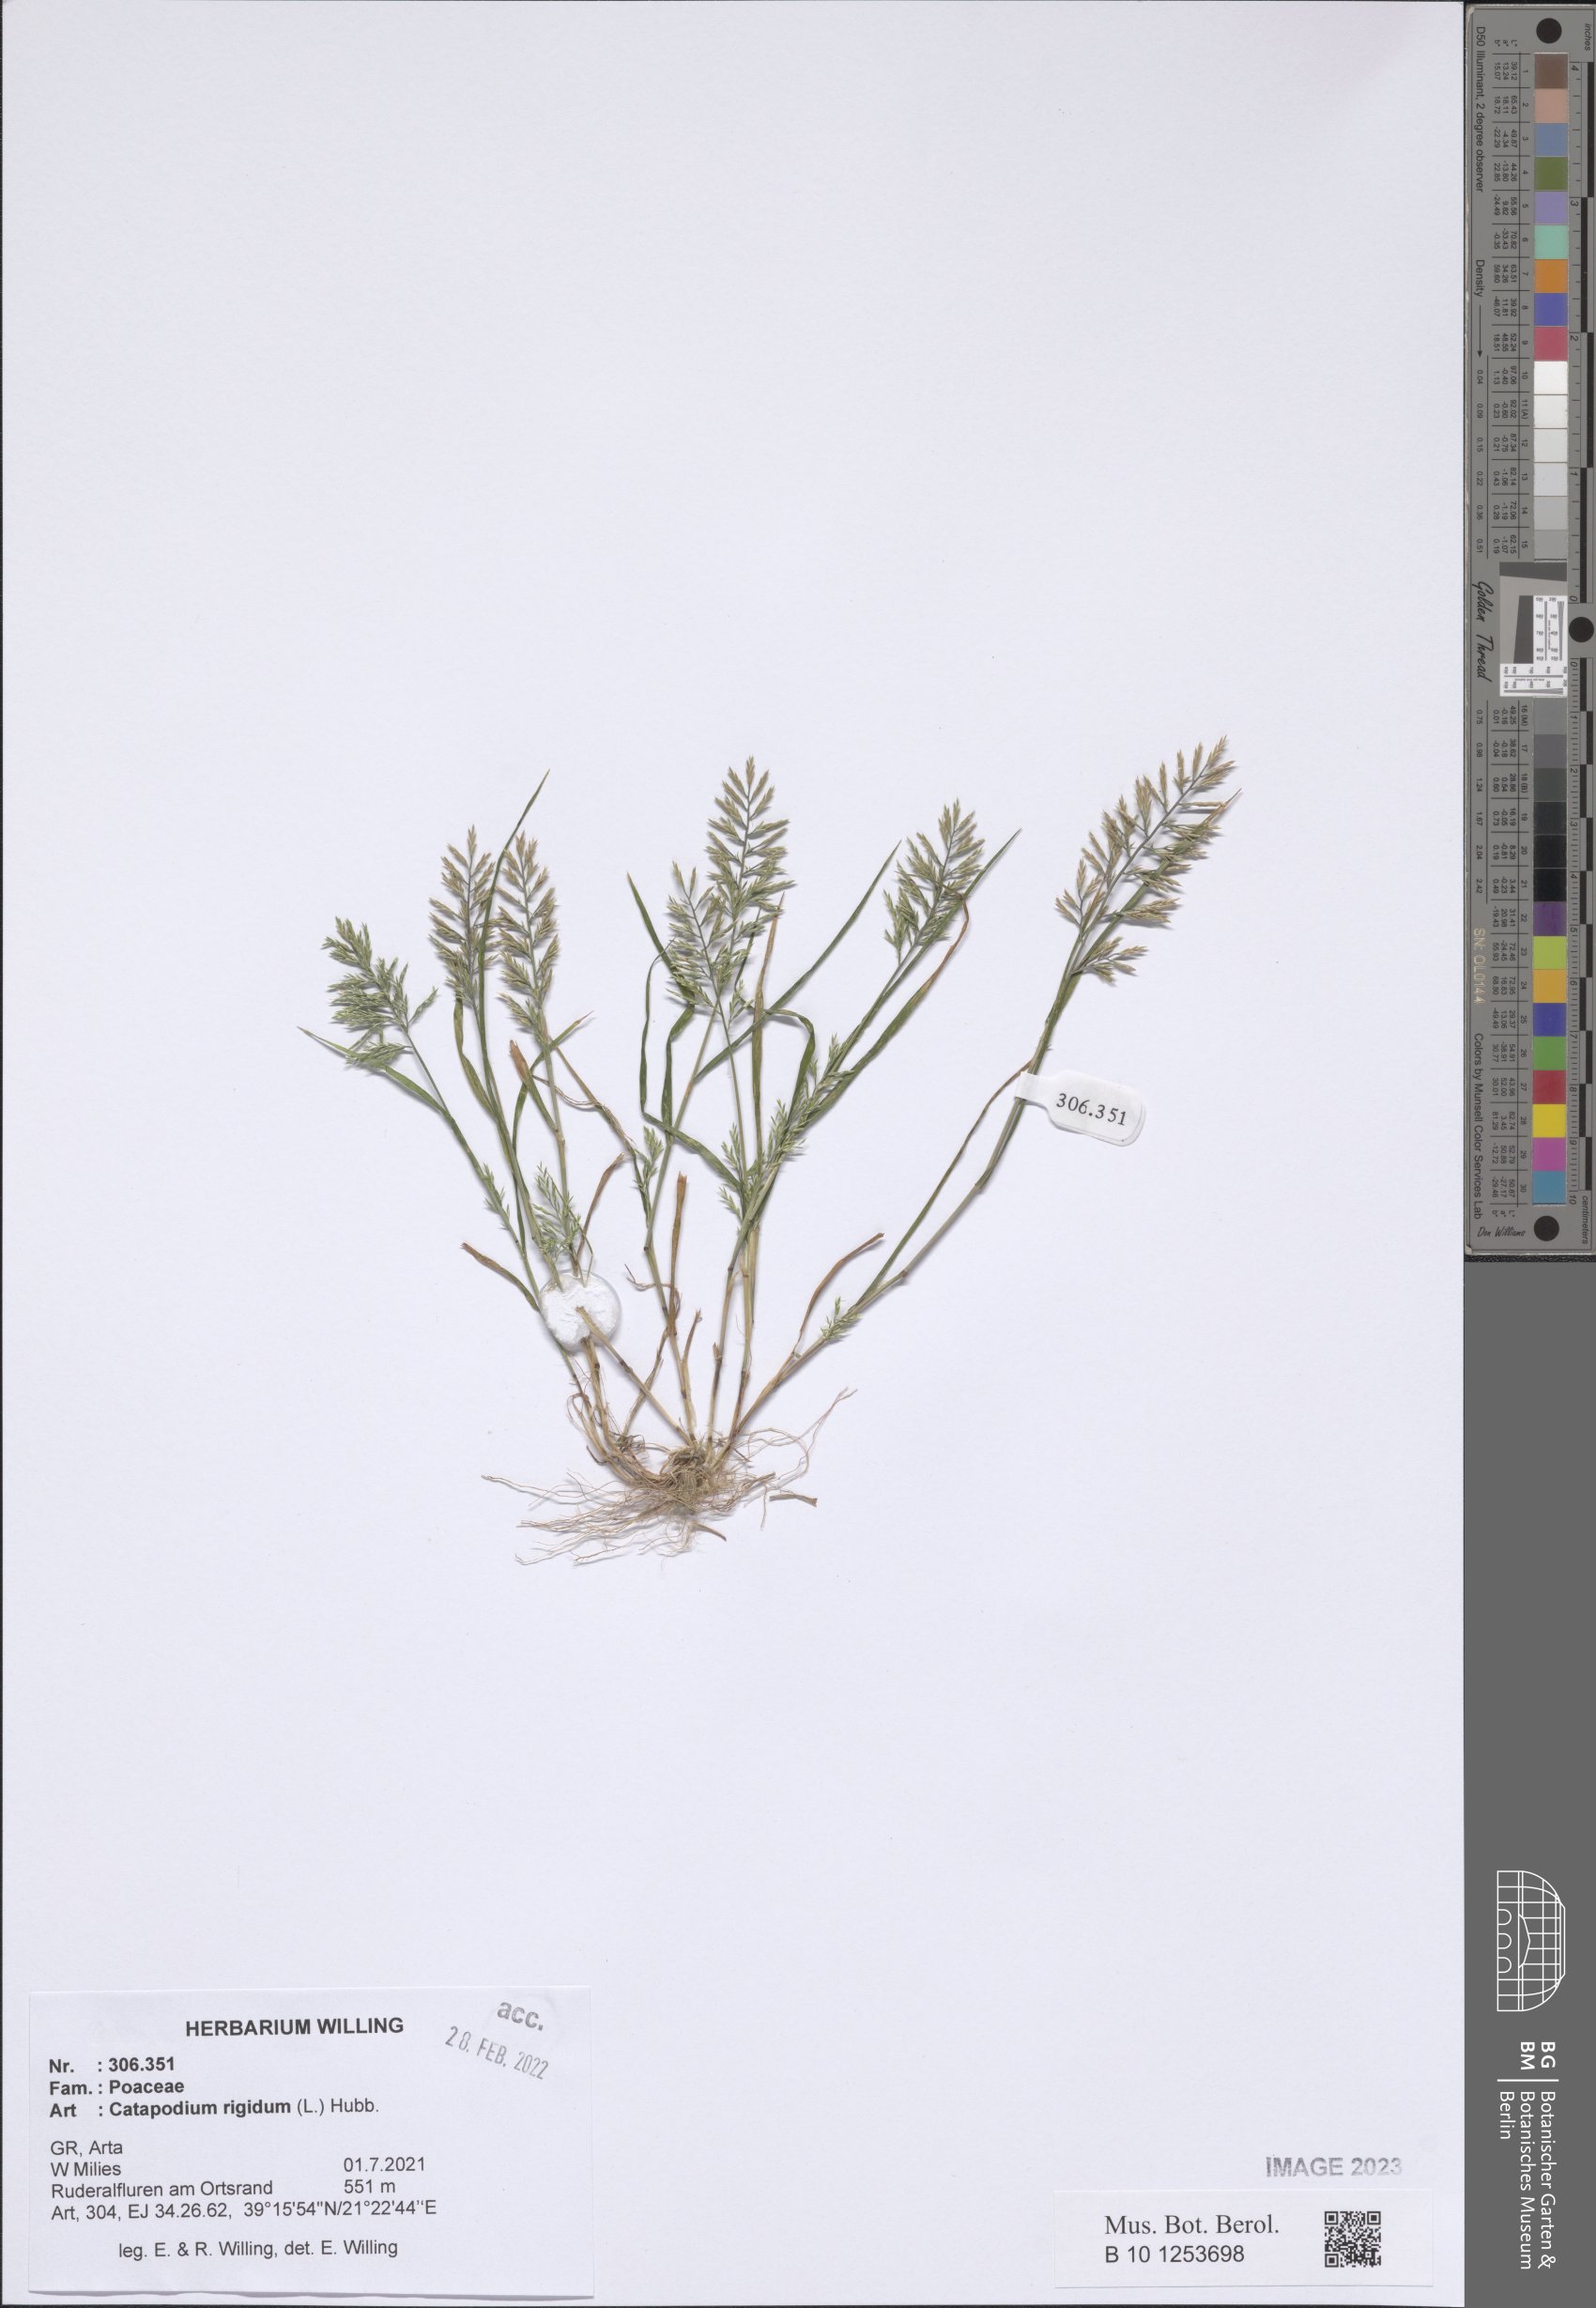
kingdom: Plantae
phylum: Tracheophyta
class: Liliopsida
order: Poales
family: Poaceae
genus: Catapodium
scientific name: Catapodium rigidum
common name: Fern-grass
